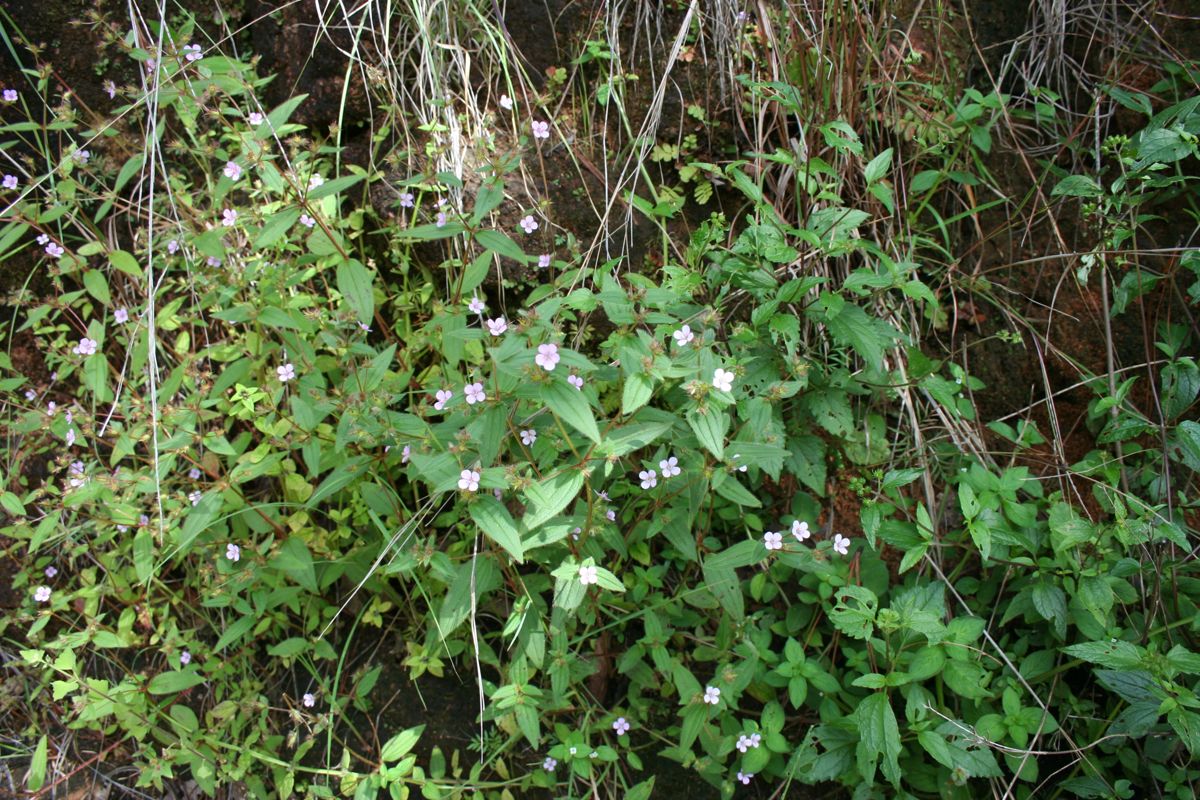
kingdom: Plantae
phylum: Tracheophyta
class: Magnoliopsida
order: Myrtales
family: Melastomataceae
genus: Pterolepis
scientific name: Pterolepis trichotoma
